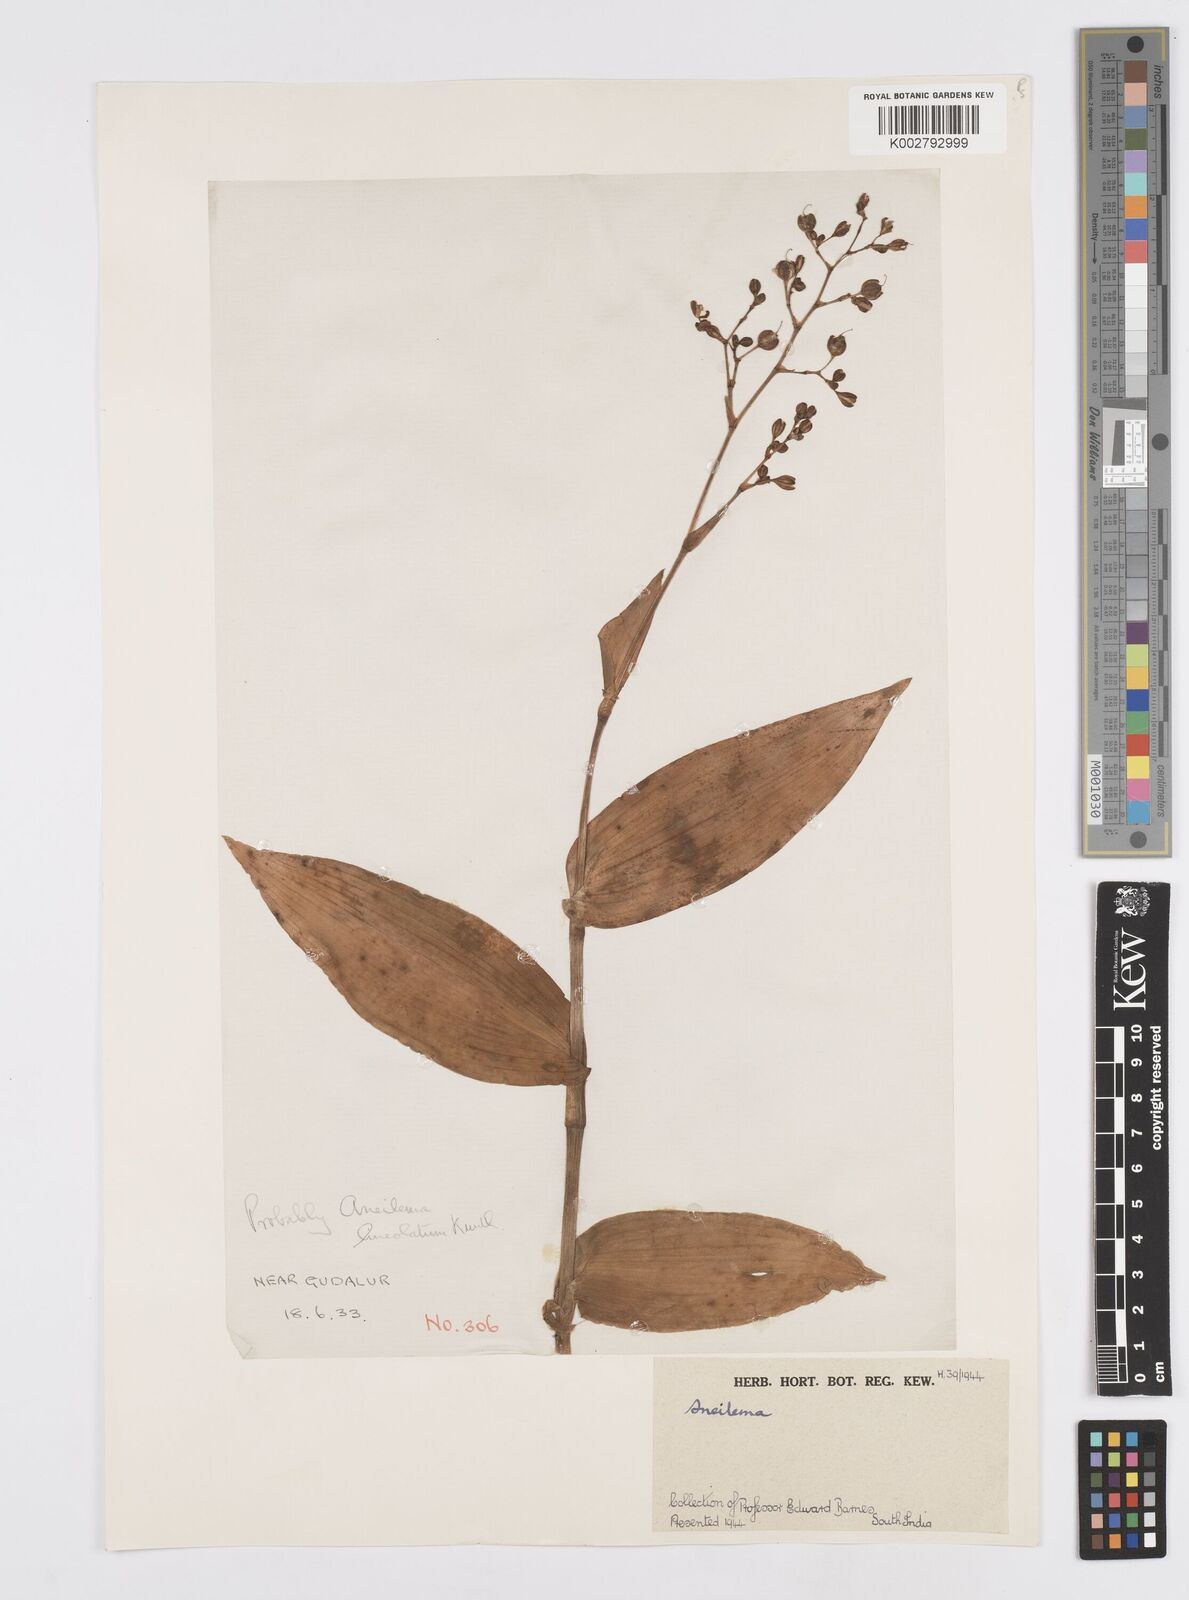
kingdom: Plantae
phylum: Tracheophyta
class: Liliopsida
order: Commelinales
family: Commelinaceae
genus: Murdannia
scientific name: Murdannia
